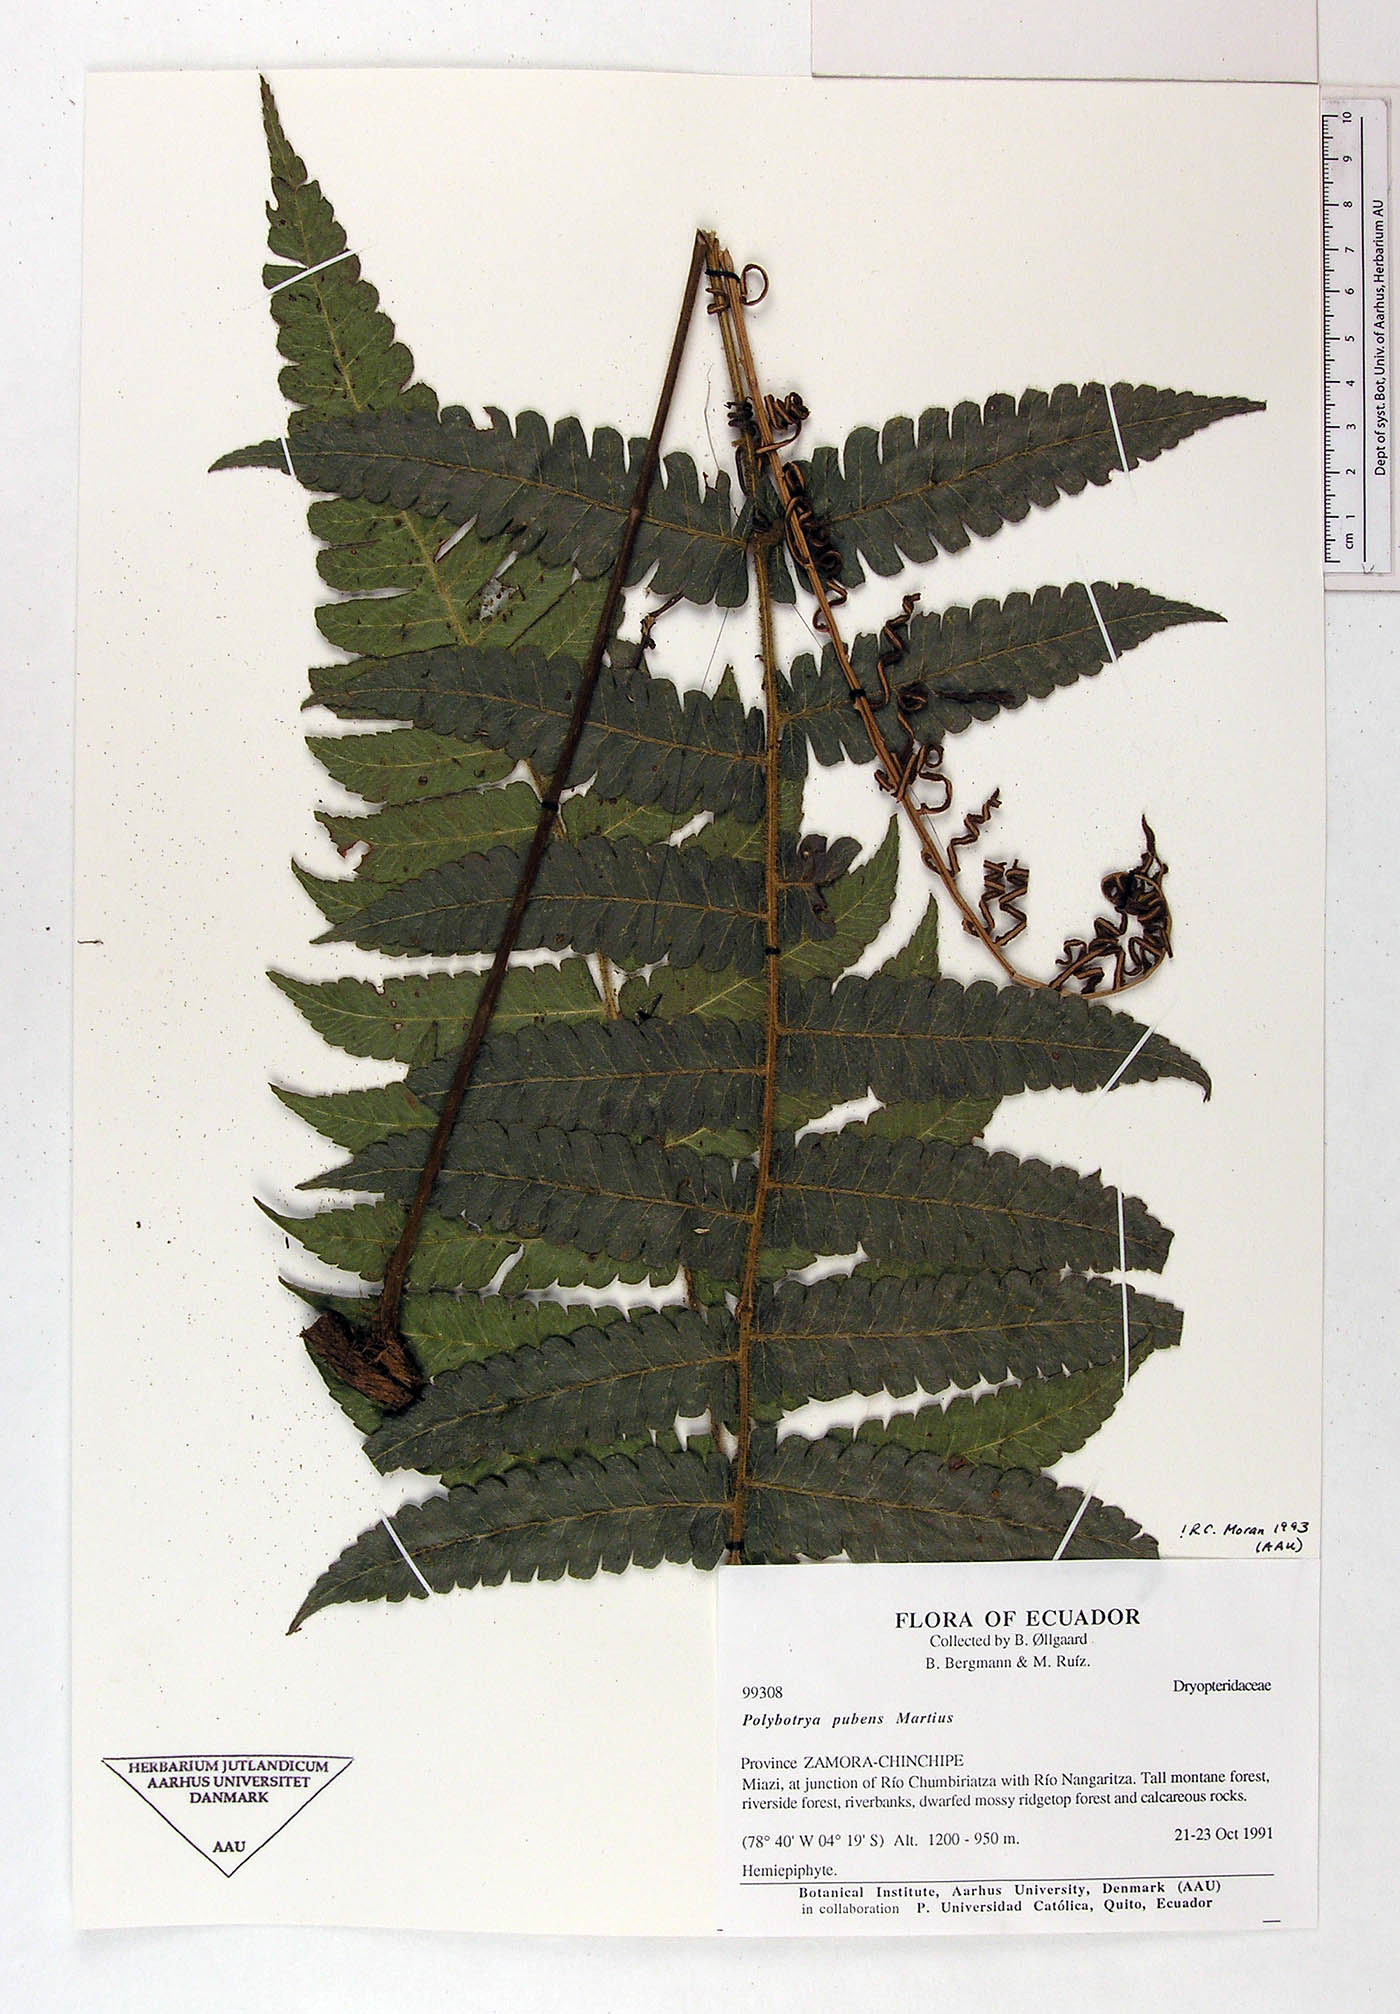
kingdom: Plantae
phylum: Tracheophyta
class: Polypodiopsida
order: Polypodiales
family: Dryopteridaceae
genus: Polybotrya
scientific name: Polybotrya pubens
